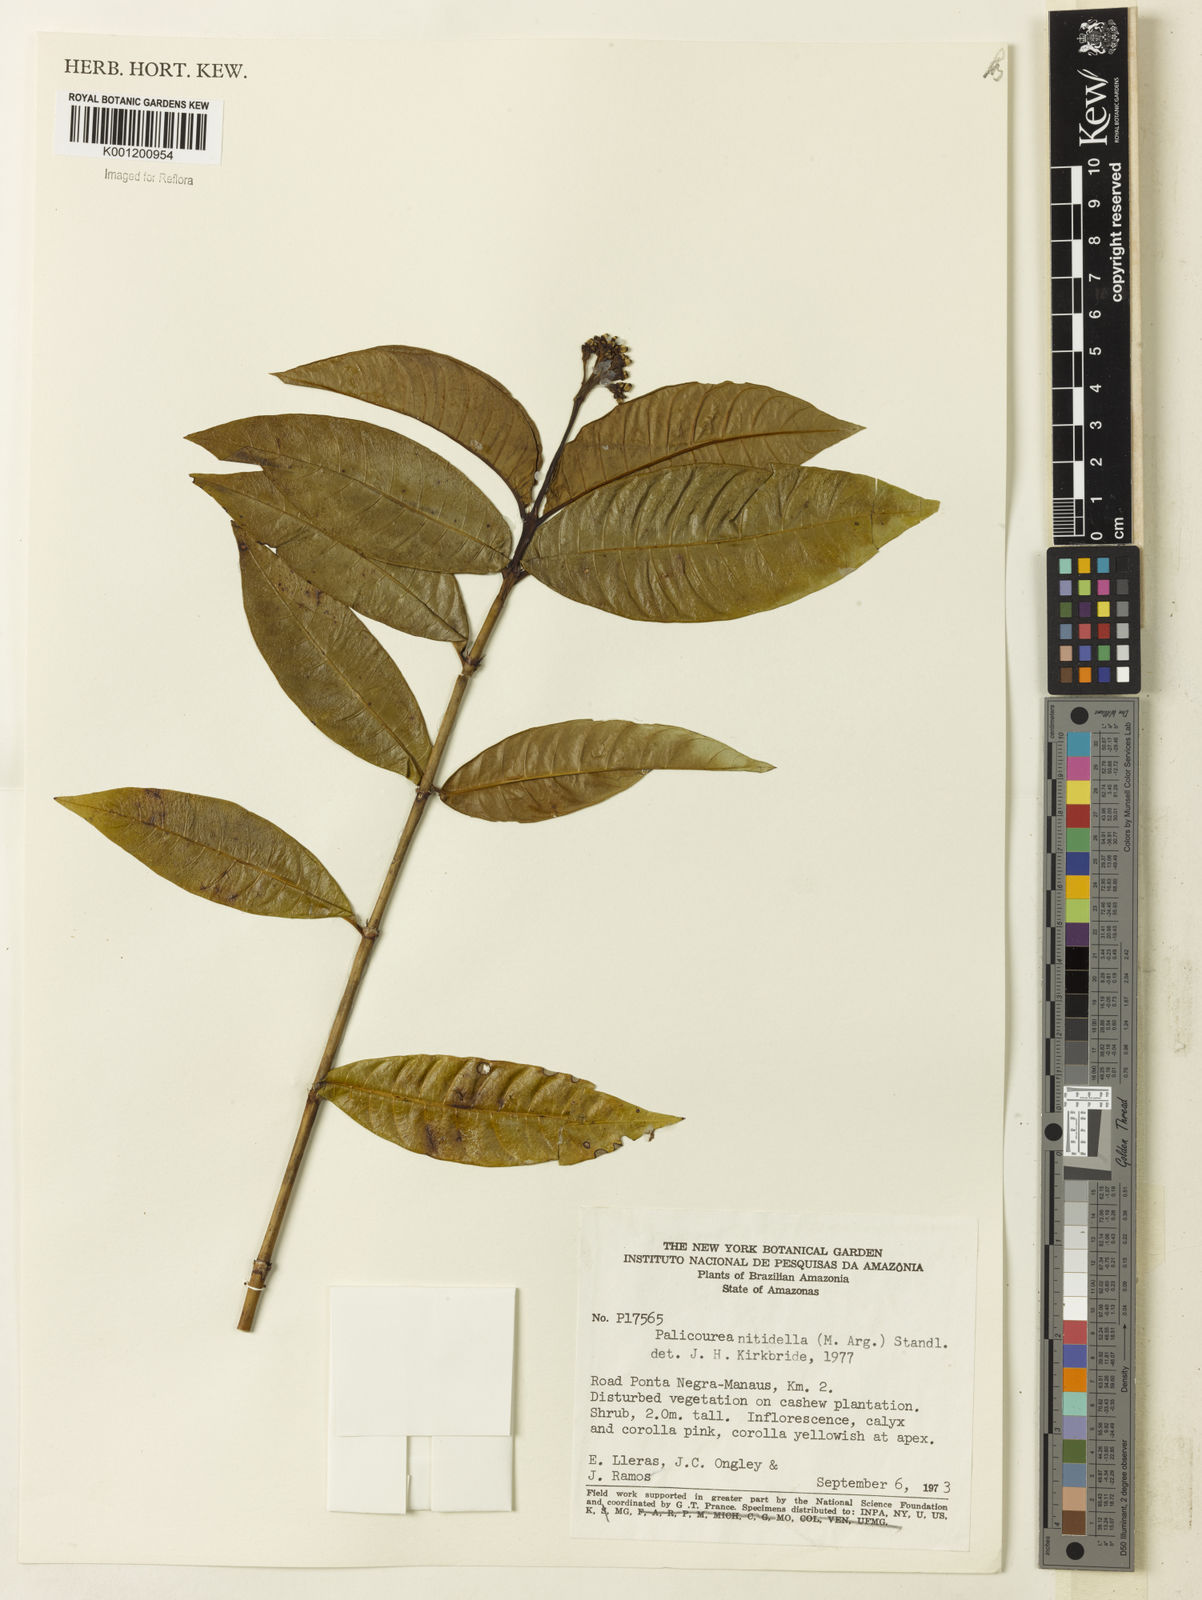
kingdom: Plantae
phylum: Tracheophyta
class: Magnoliopsida
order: Gentianales
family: Rubiaceae
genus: Palicourea
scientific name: Palicourea
